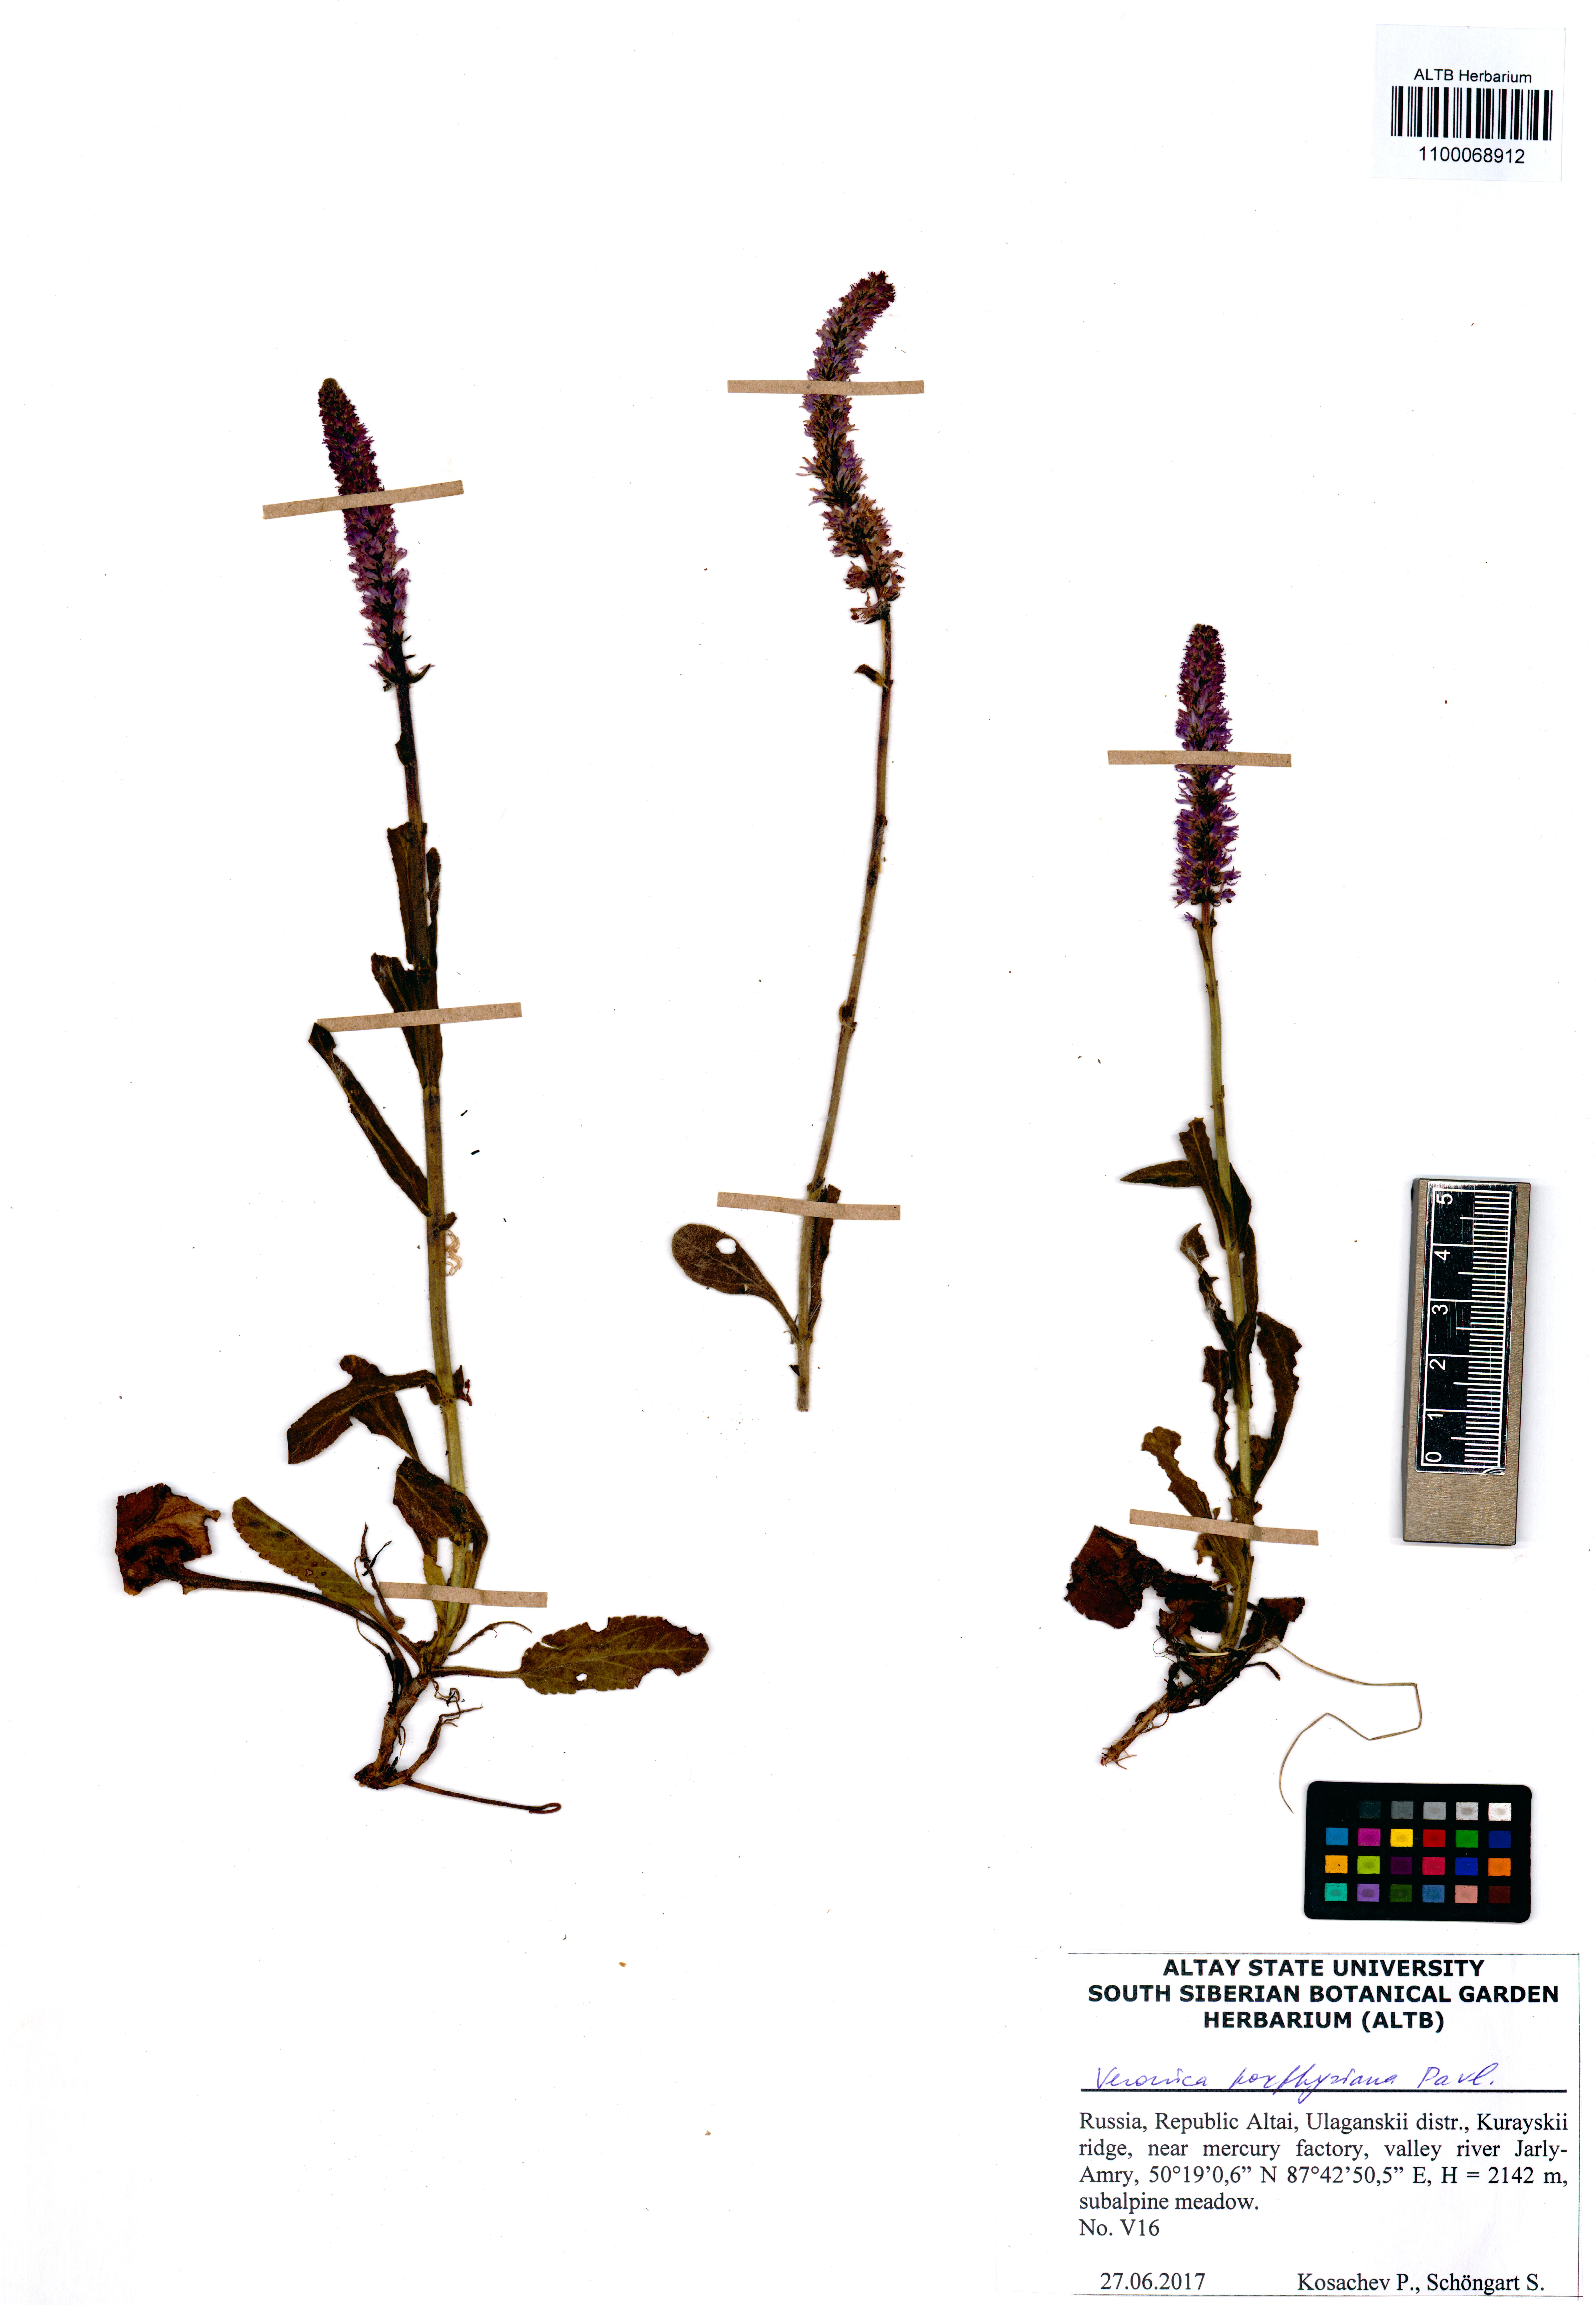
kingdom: Plantae
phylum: Tracheophyta
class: Magnoliopsida
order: Lamiales
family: Plantaginaceae
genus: Veronica
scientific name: Veronica porphyriana
